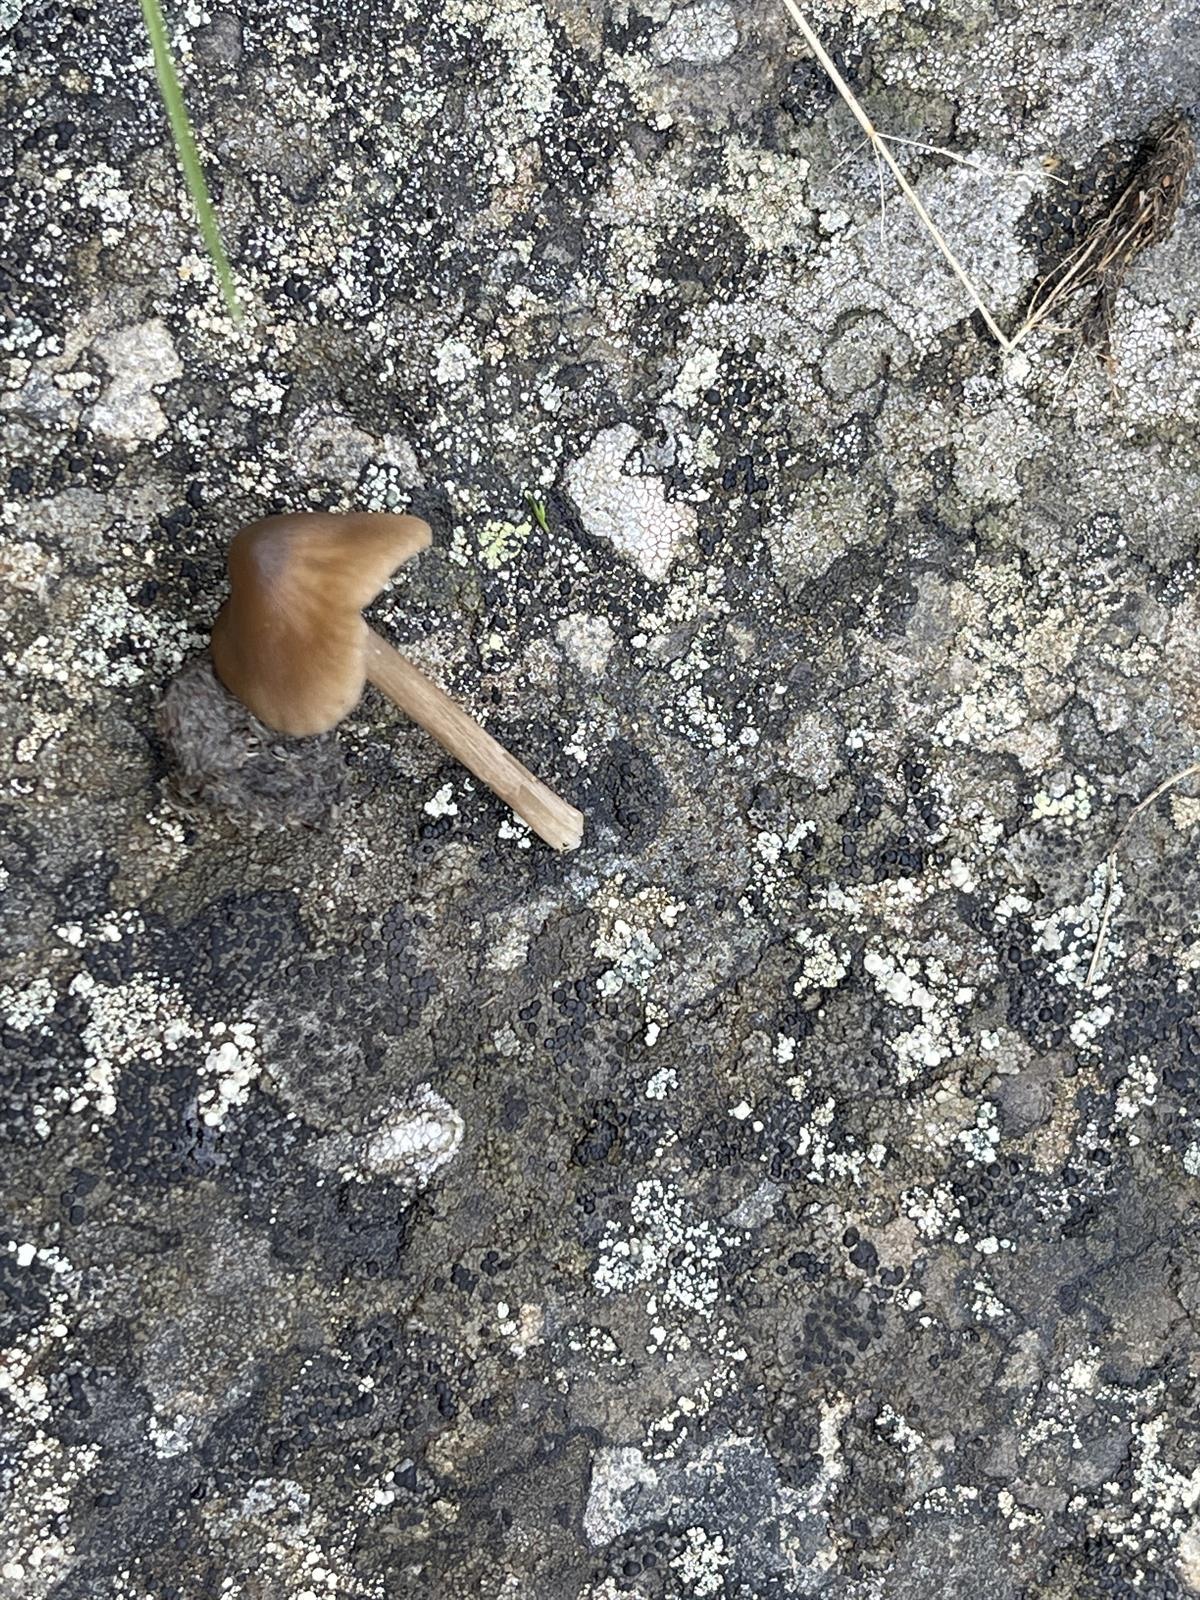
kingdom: Fungi
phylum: Basidiomycota
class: Agaricomycetes
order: Agaricales
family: Entolomataceae
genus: Entoloma
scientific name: Entoloma subcuboideum
